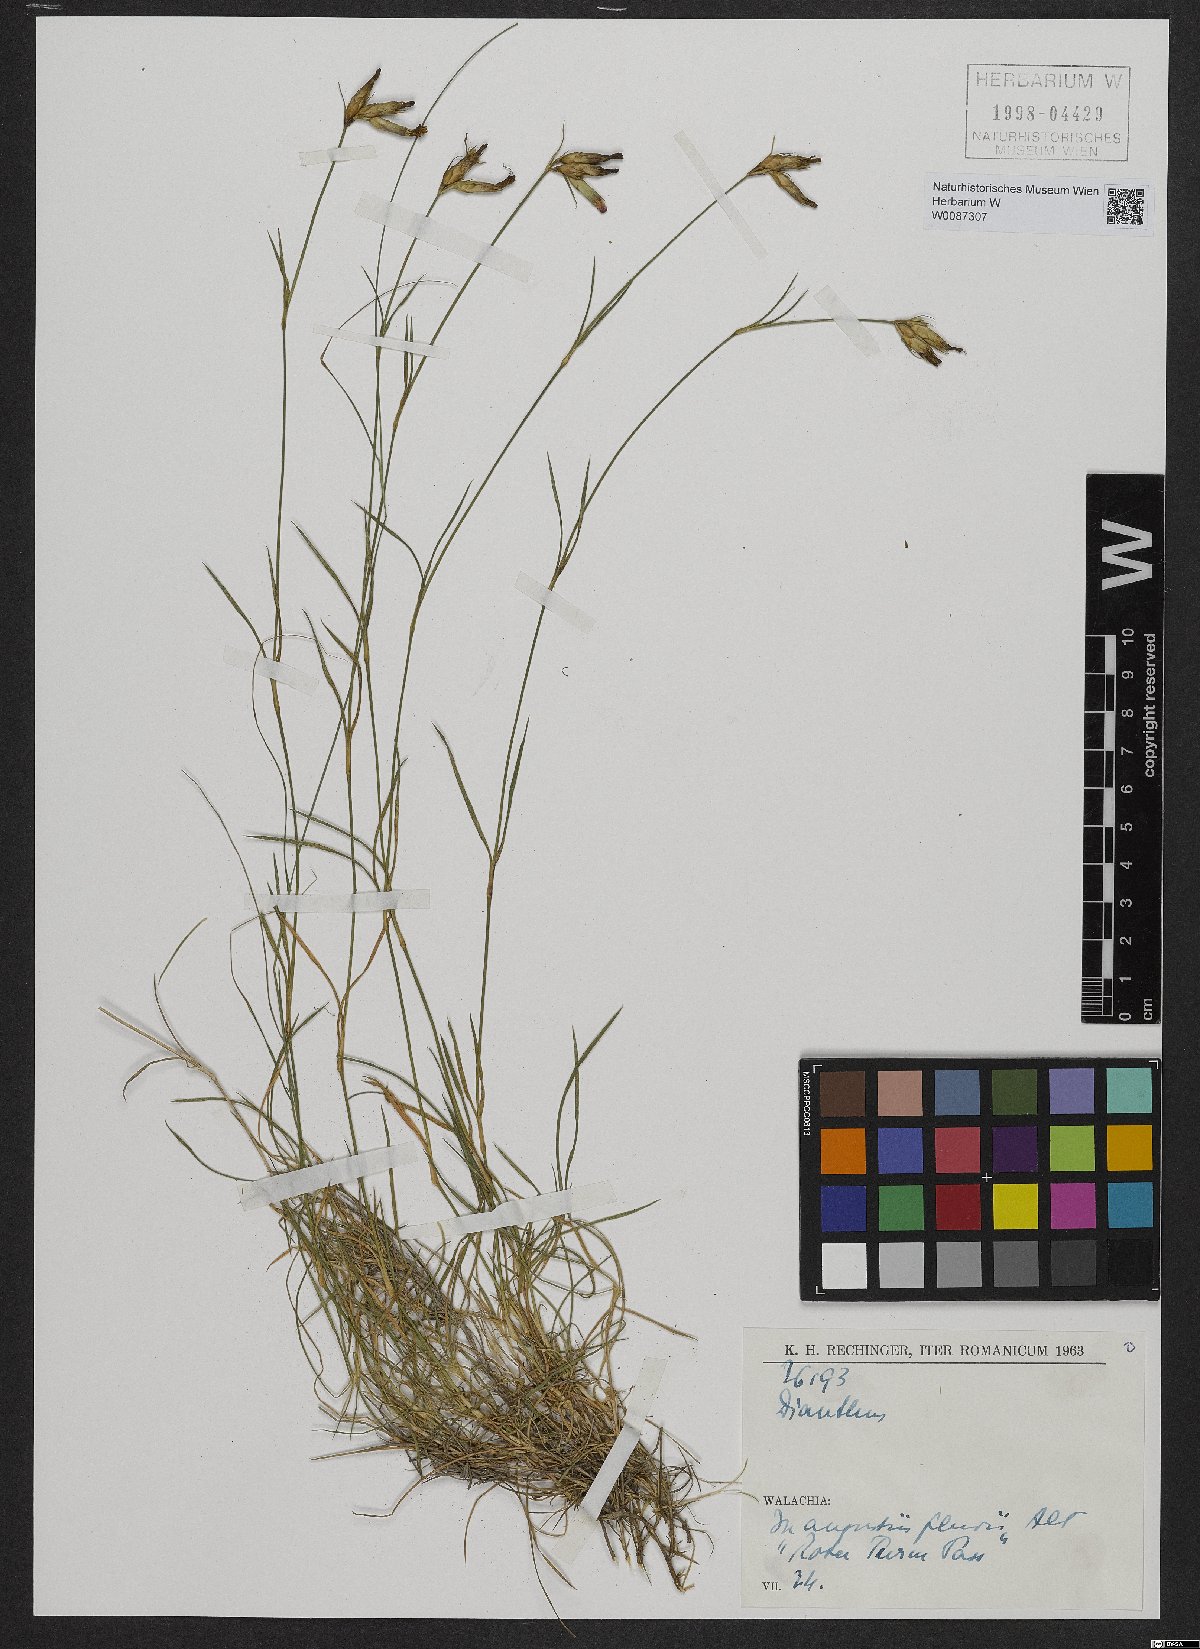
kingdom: Plantae
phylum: Tracheophyta
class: Magnoliopsida
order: Caryophyllales
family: Caryophyllaceae
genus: Dianthus
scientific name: Dianthus
